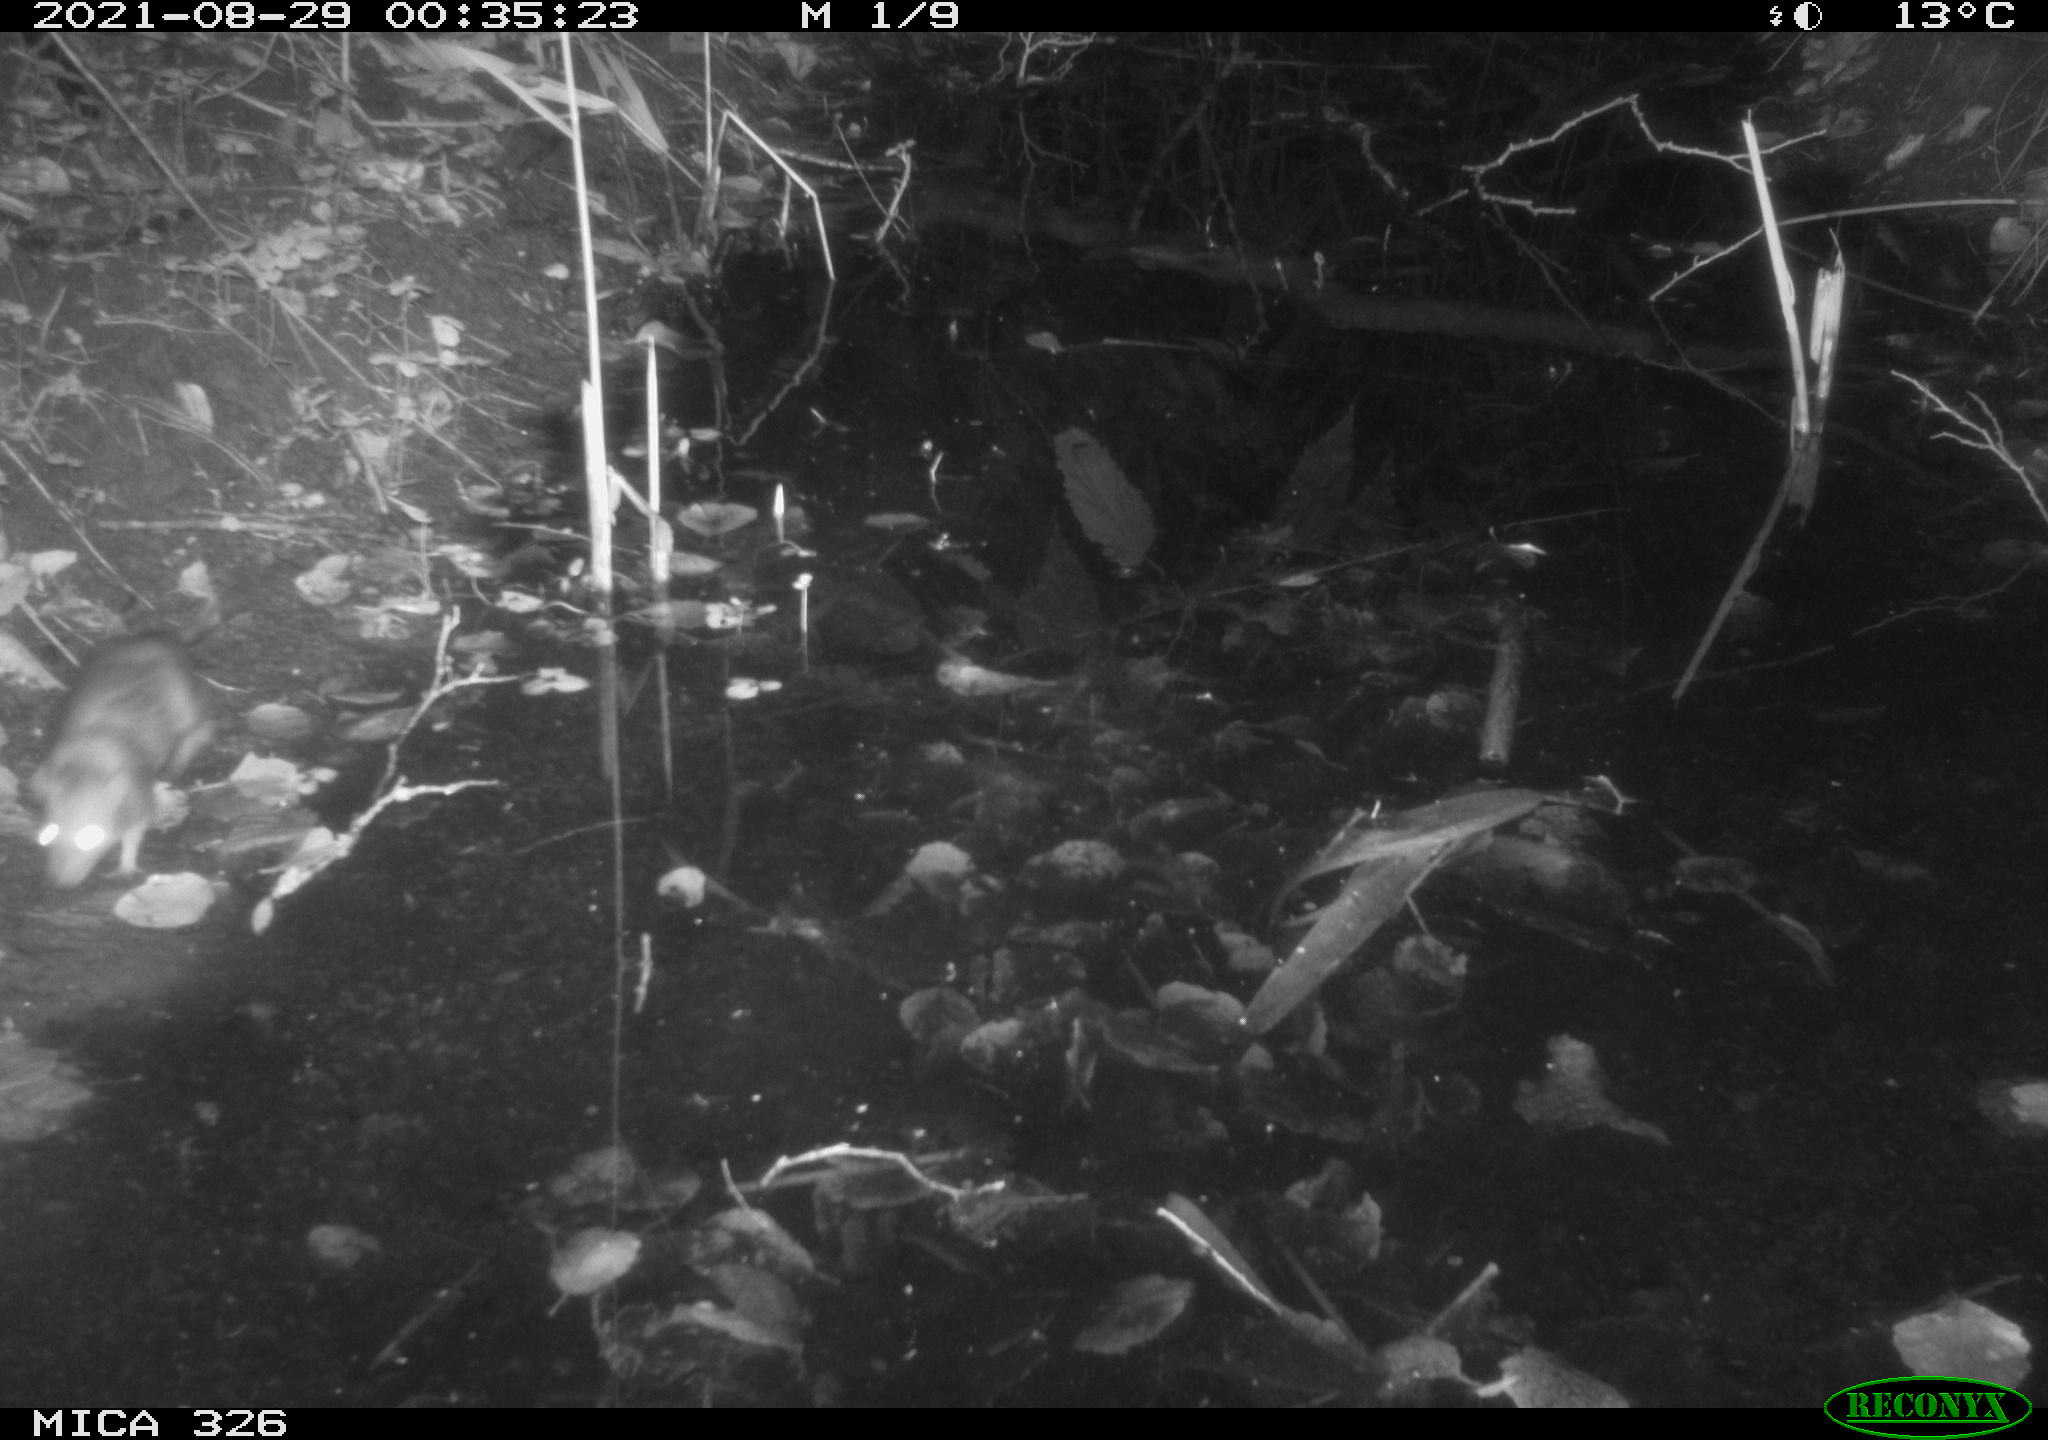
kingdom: Animalia
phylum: Chordata
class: Mammalia
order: Rodentia
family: Muridae
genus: Rattus
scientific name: Rattus norvegicus
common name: Brown rat
